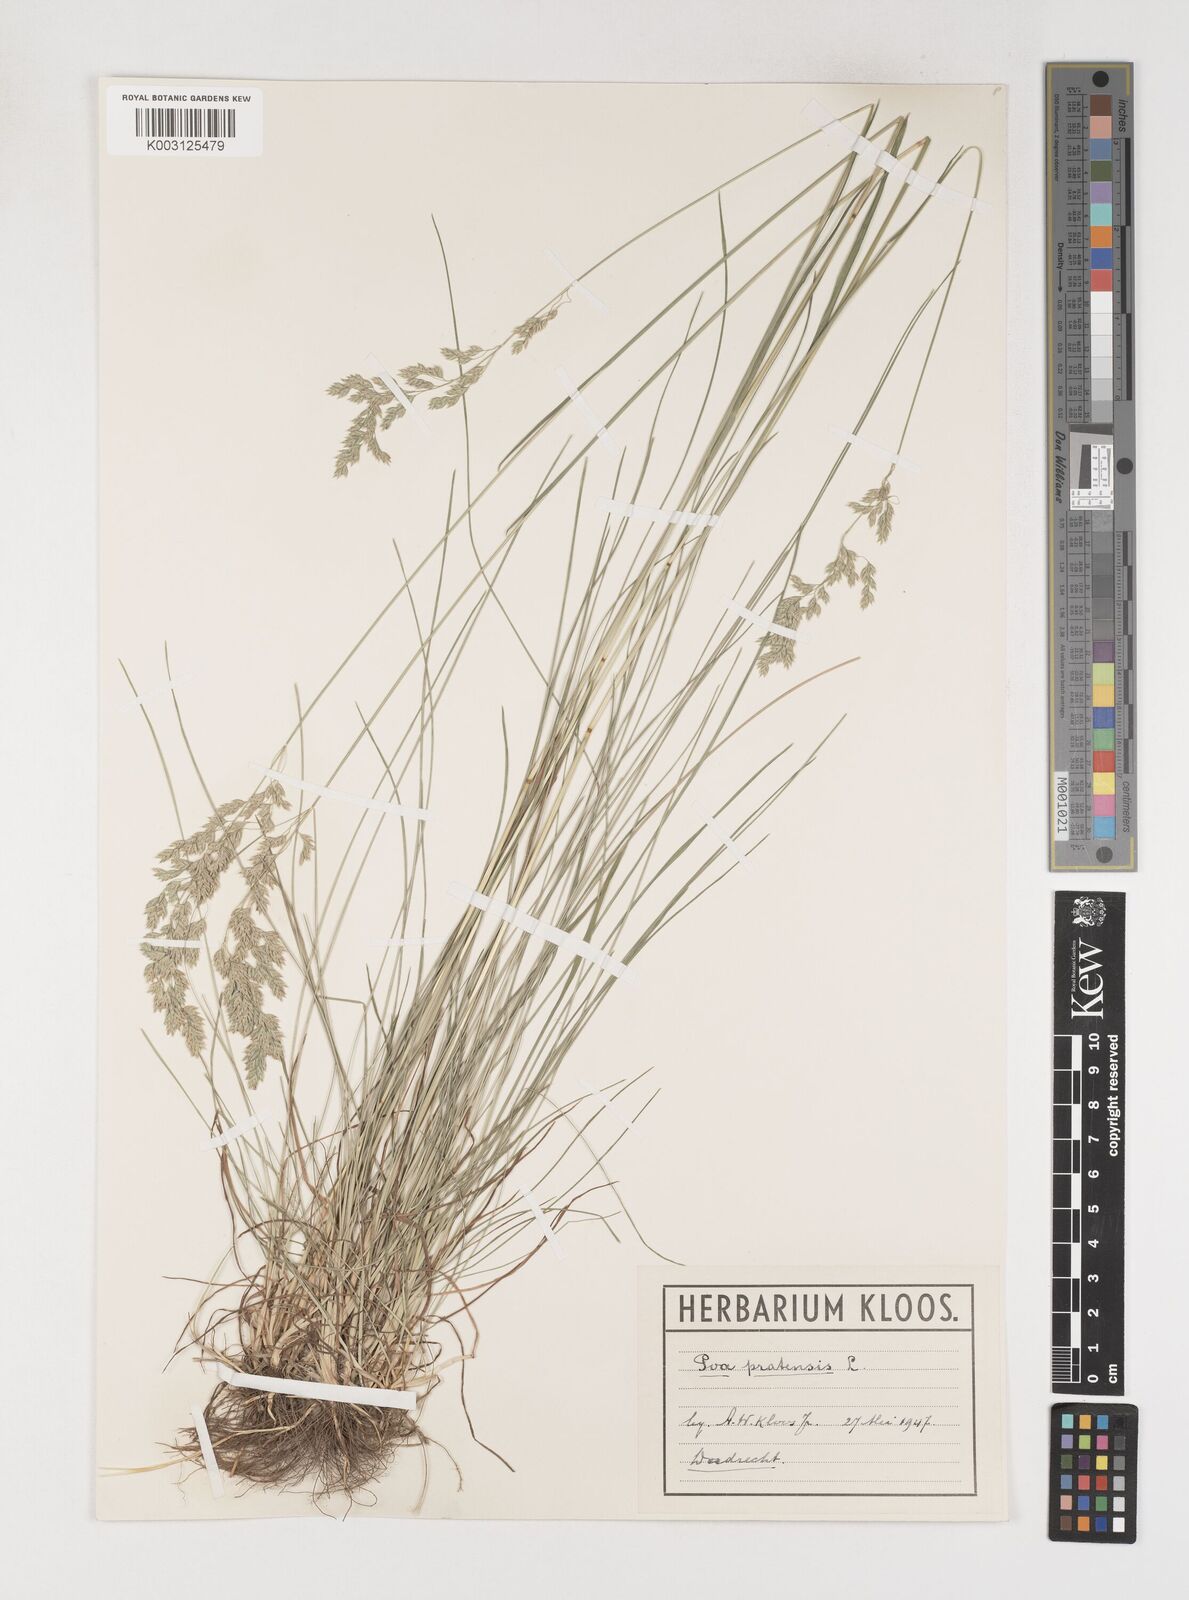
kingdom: Plantae
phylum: Tracheophyta
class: Liliopsida
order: Poales
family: Poaceae
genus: Poa
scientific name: Poa angustifolia
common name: Narrow-leaved meadow-grass
